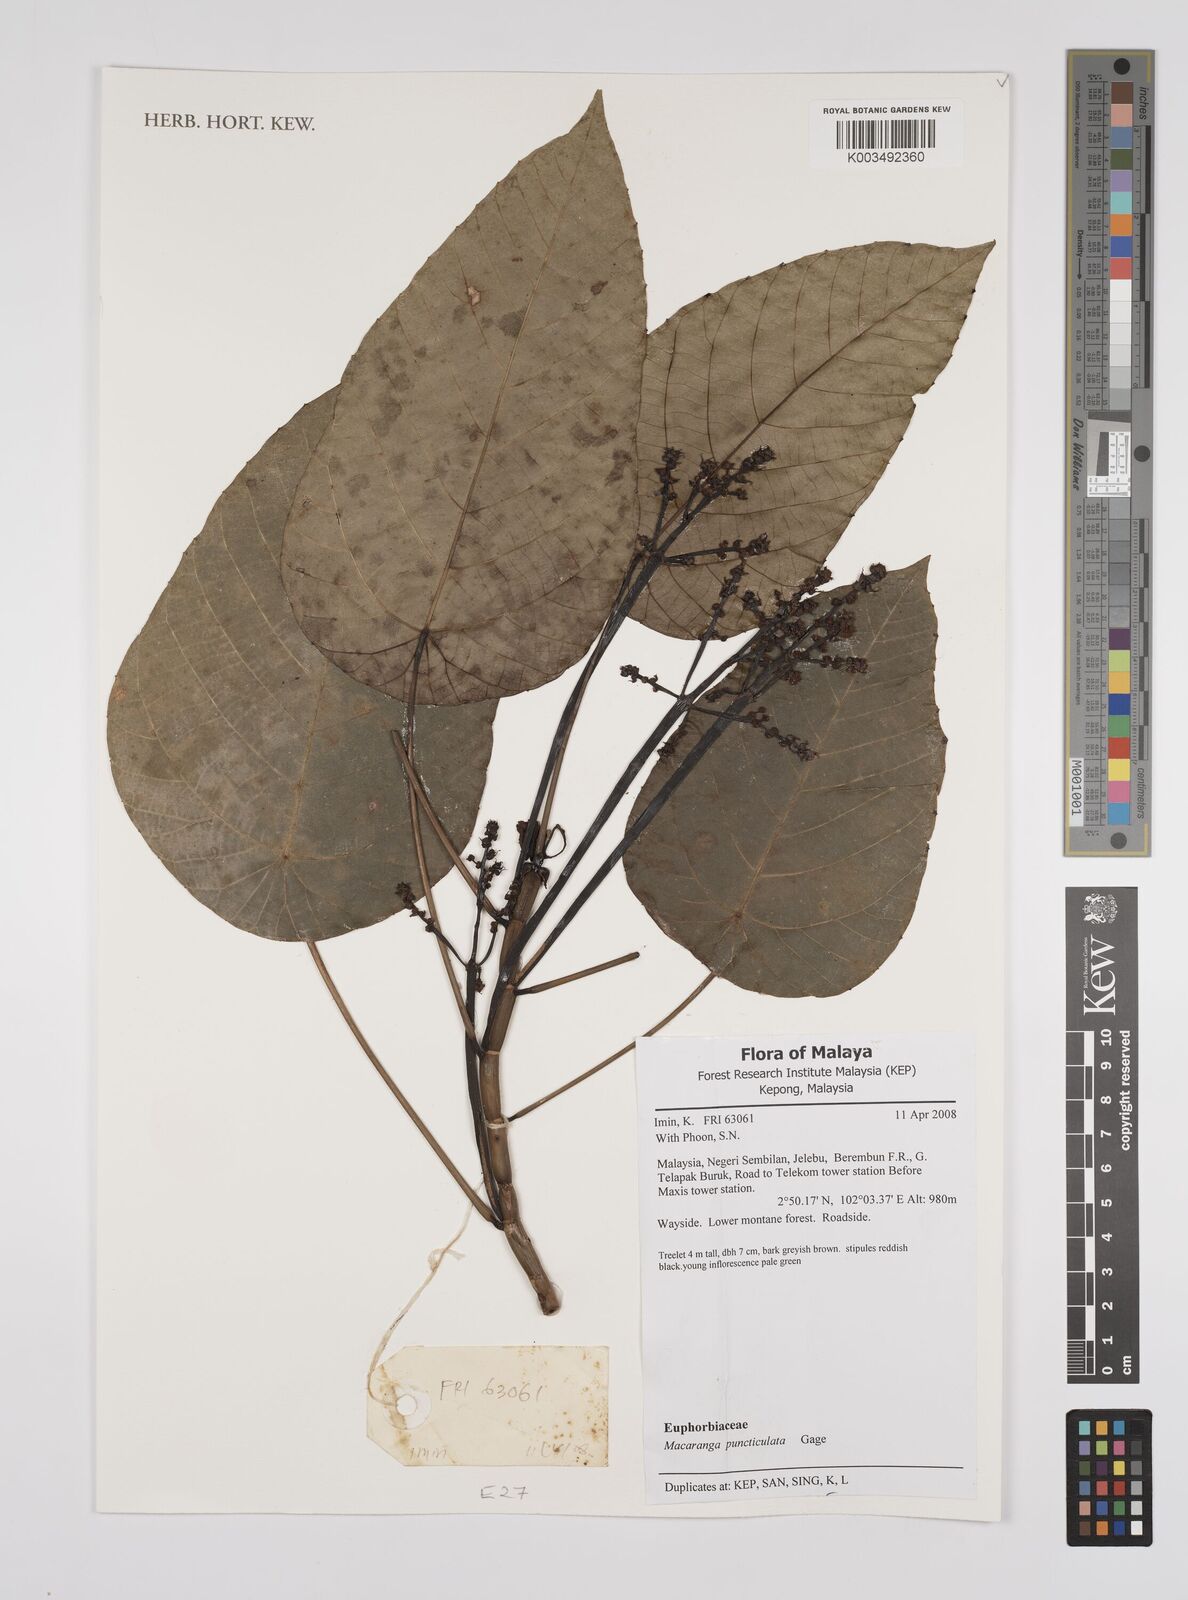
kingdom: Plantae
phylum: Tracheophyta
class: Magnoliopsida
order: Malpighiales
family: Euphorbiaceae
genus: Macaranga
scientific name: Macaranga puncticulata
